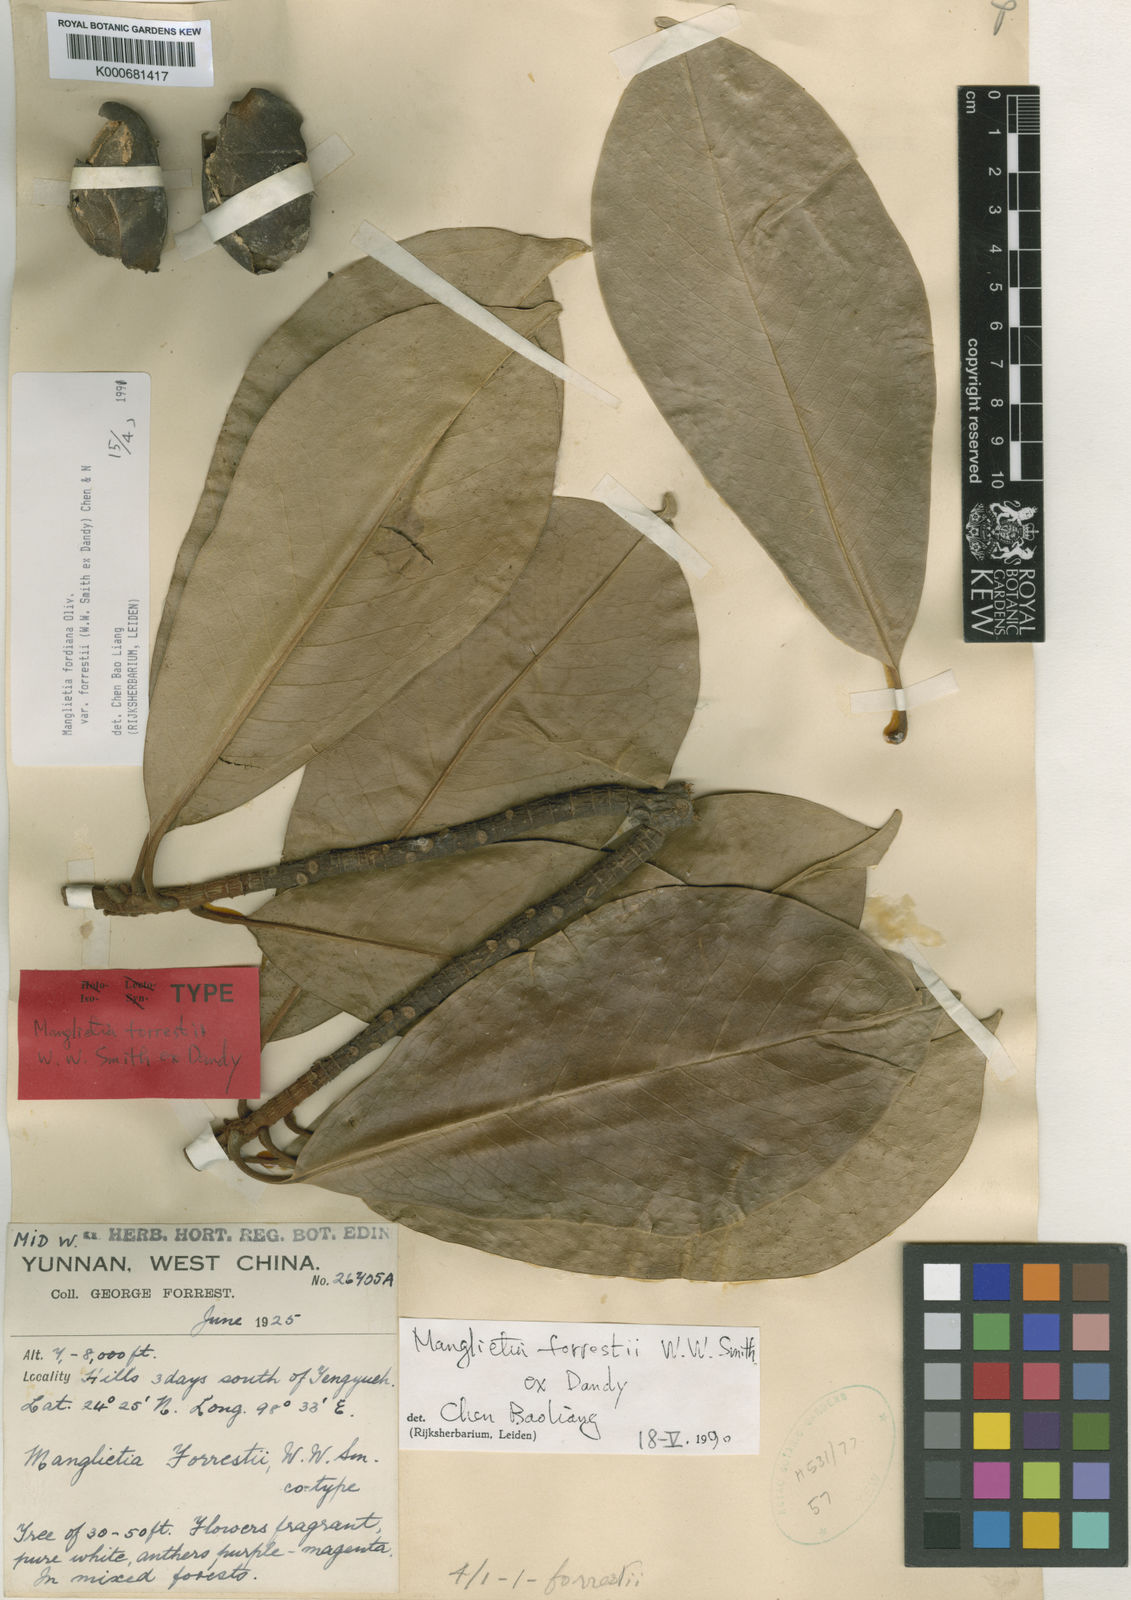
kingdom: Plantae
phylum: Tracheophyta
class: Magnoliopsida
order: Magnoliales
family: Magnoliaceae
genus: Magnolia
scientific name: Magnolia fordiana
